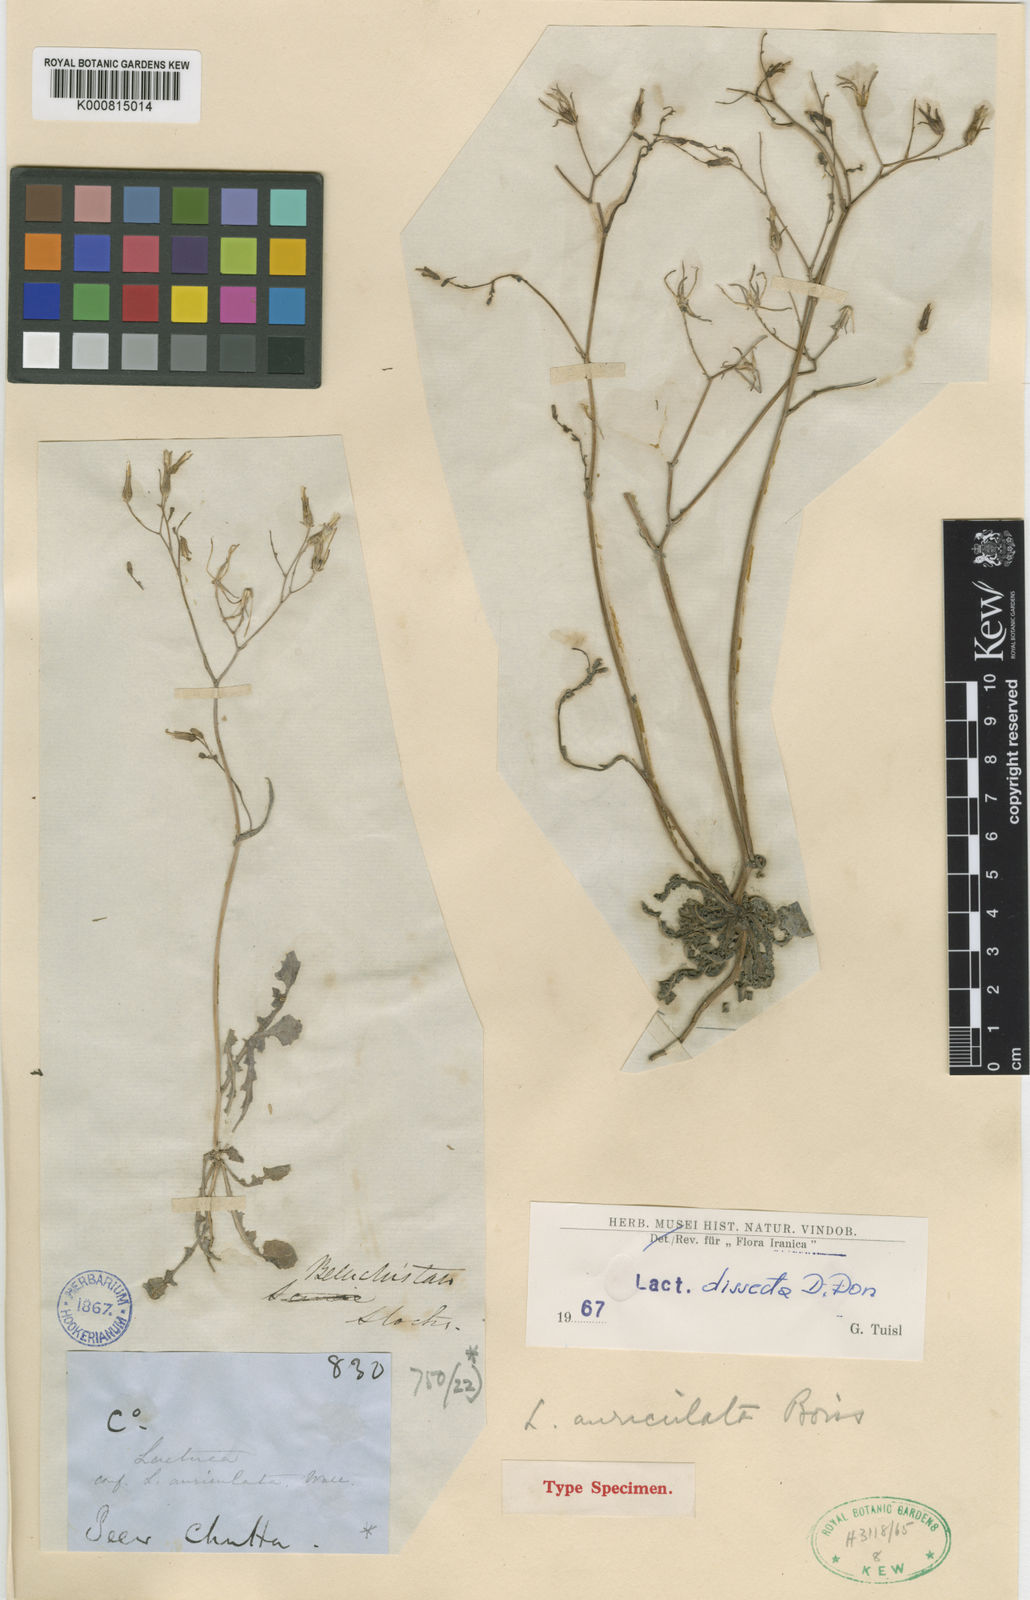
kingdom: Plantae
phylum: Tracheophyta
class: Magnoliopsida
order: Asterales
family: Asteraceae
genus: Lactuca
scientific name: Lactuca dissecta
